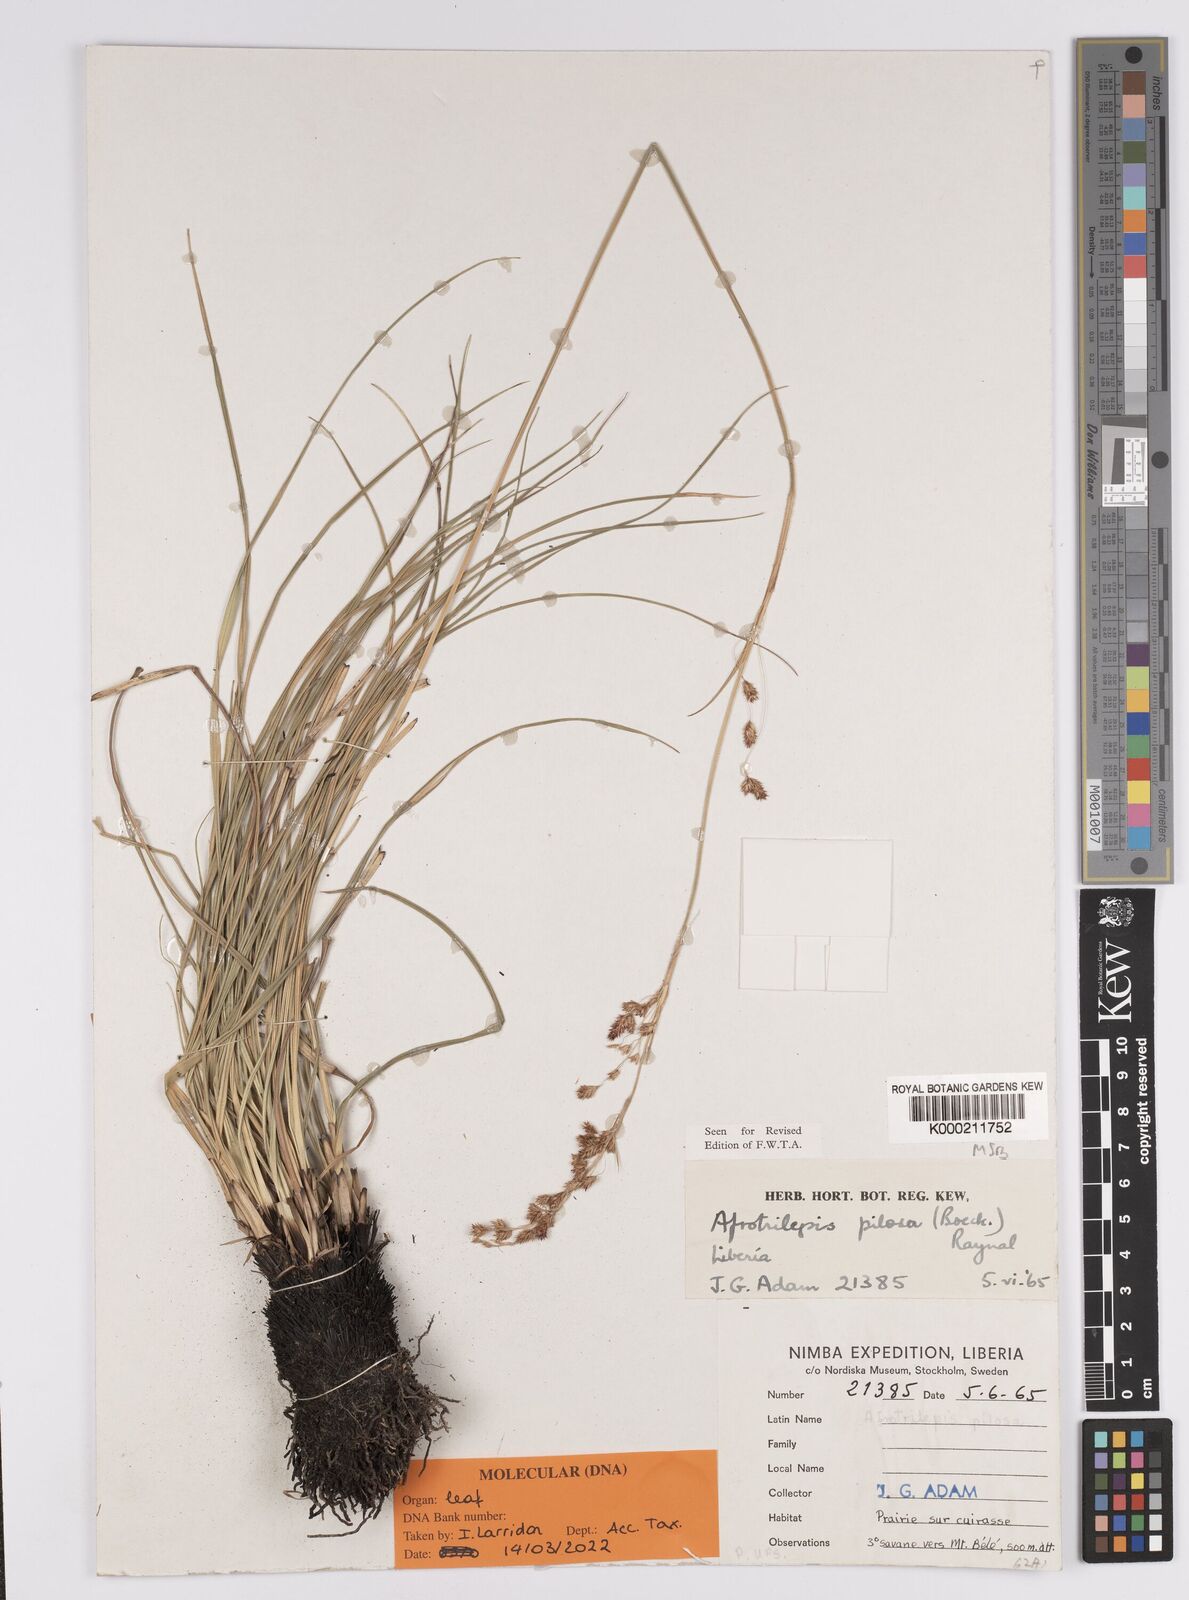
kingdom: Plantae
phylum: Tracheophyta
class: Liliopsida
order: Poales
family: Cyperaceae
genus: Afrotrilepis
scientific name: Afrotrilepis pilosa
